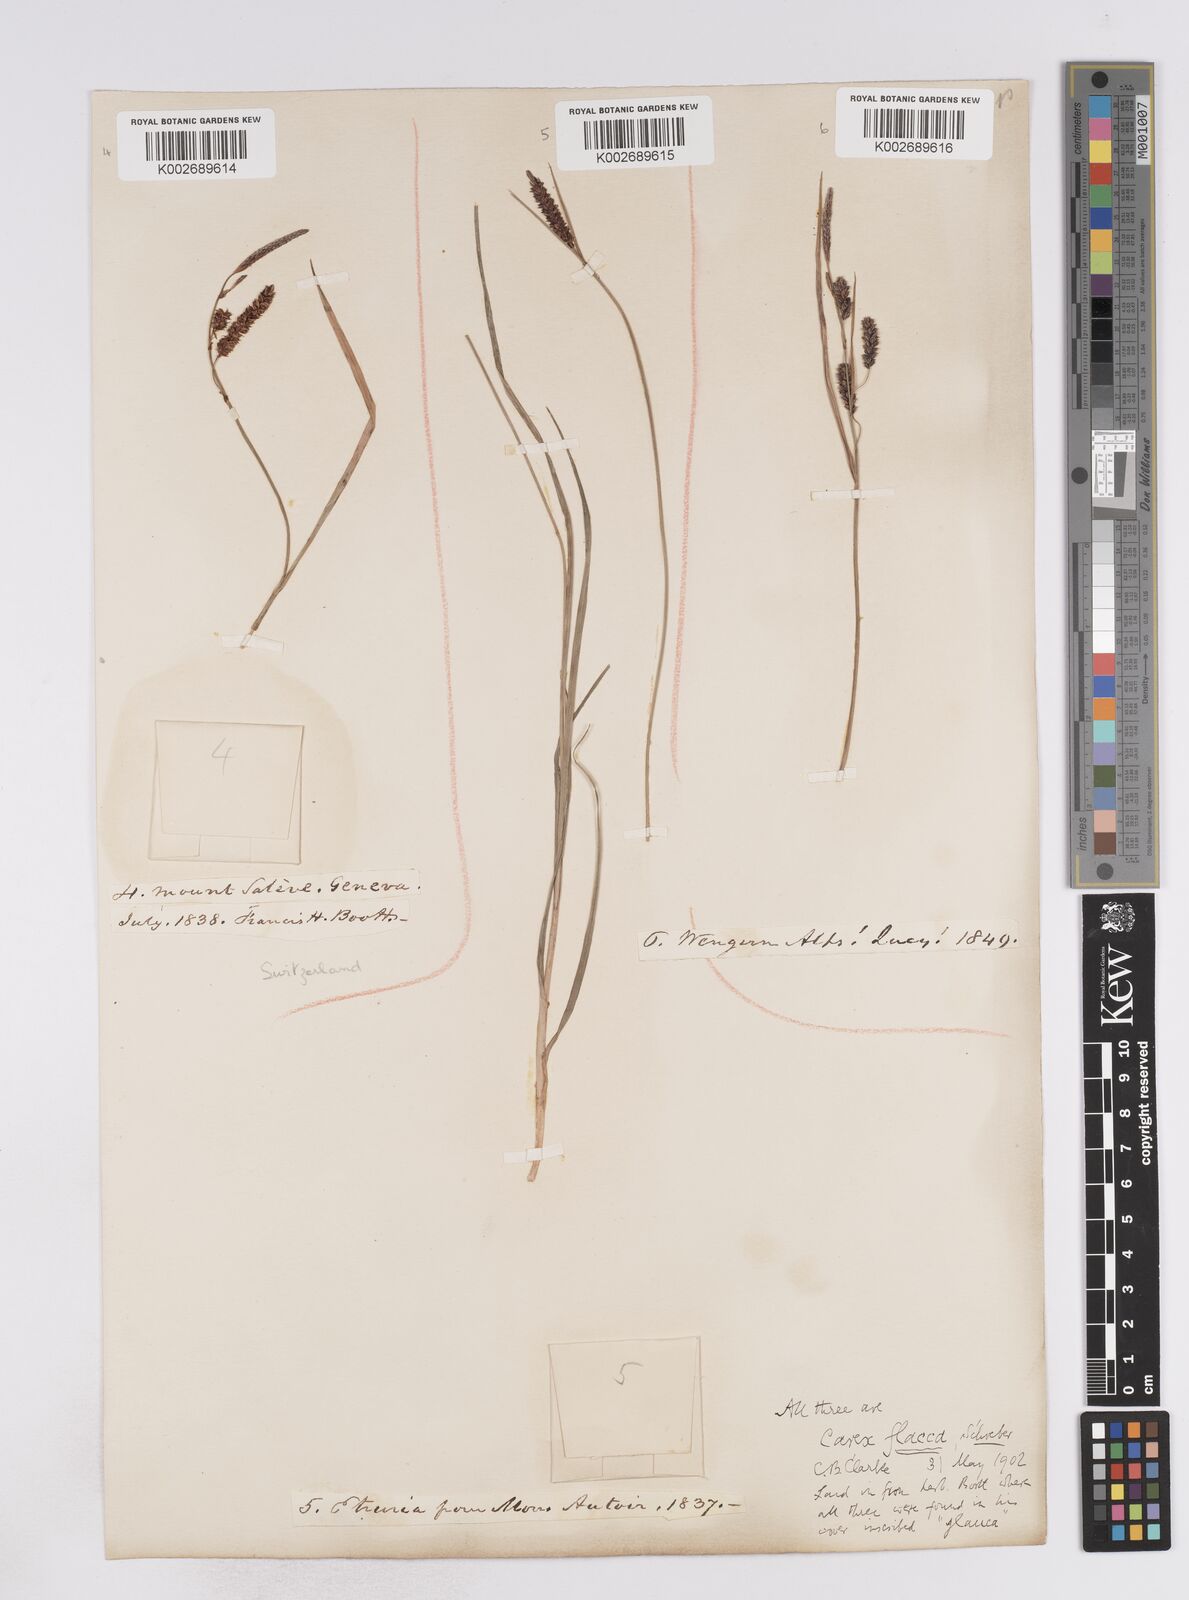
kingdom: Plantae
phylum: Tracheophyta
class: Liliopsida
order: Poales
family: Cyperaceae
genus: Carex
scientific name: Carex flacca
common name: Glaucous sedge
